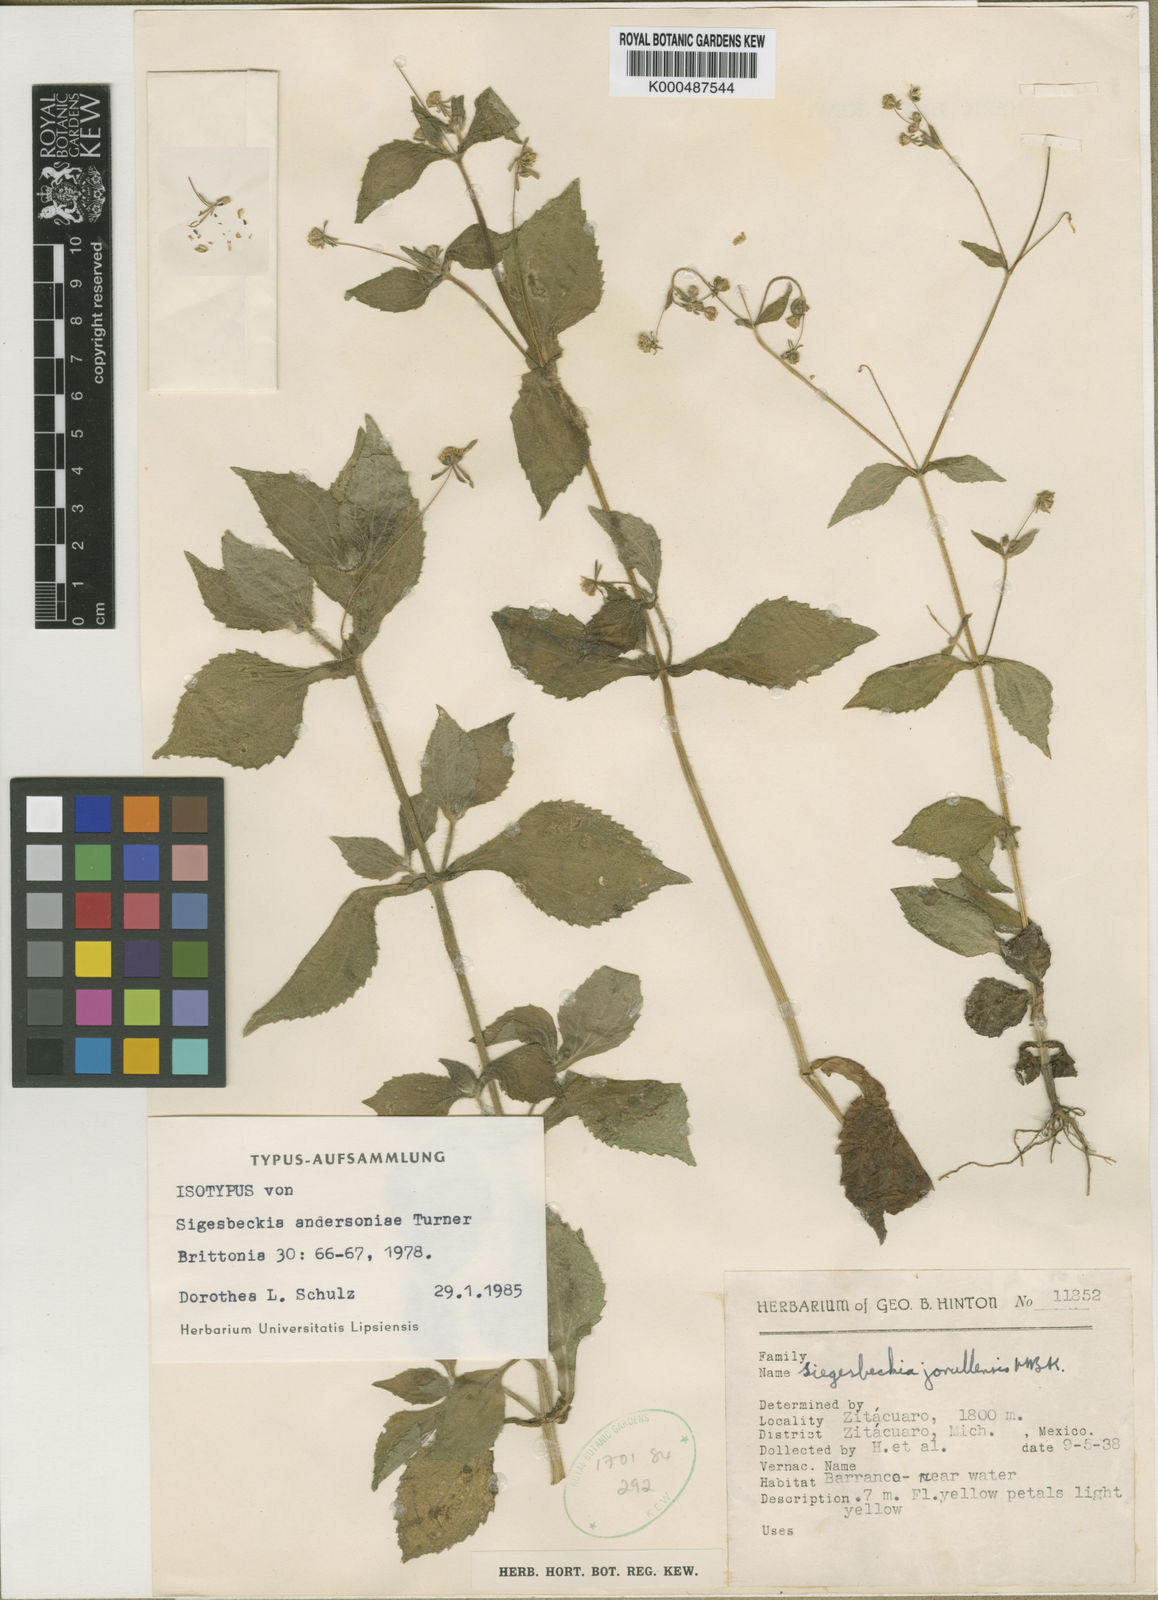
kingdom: Plantae
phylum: Tracheophyta
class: Magnoliopsida
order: Asterales
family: Asteraceae
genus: Zandera
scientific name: Zandera andersoniae
